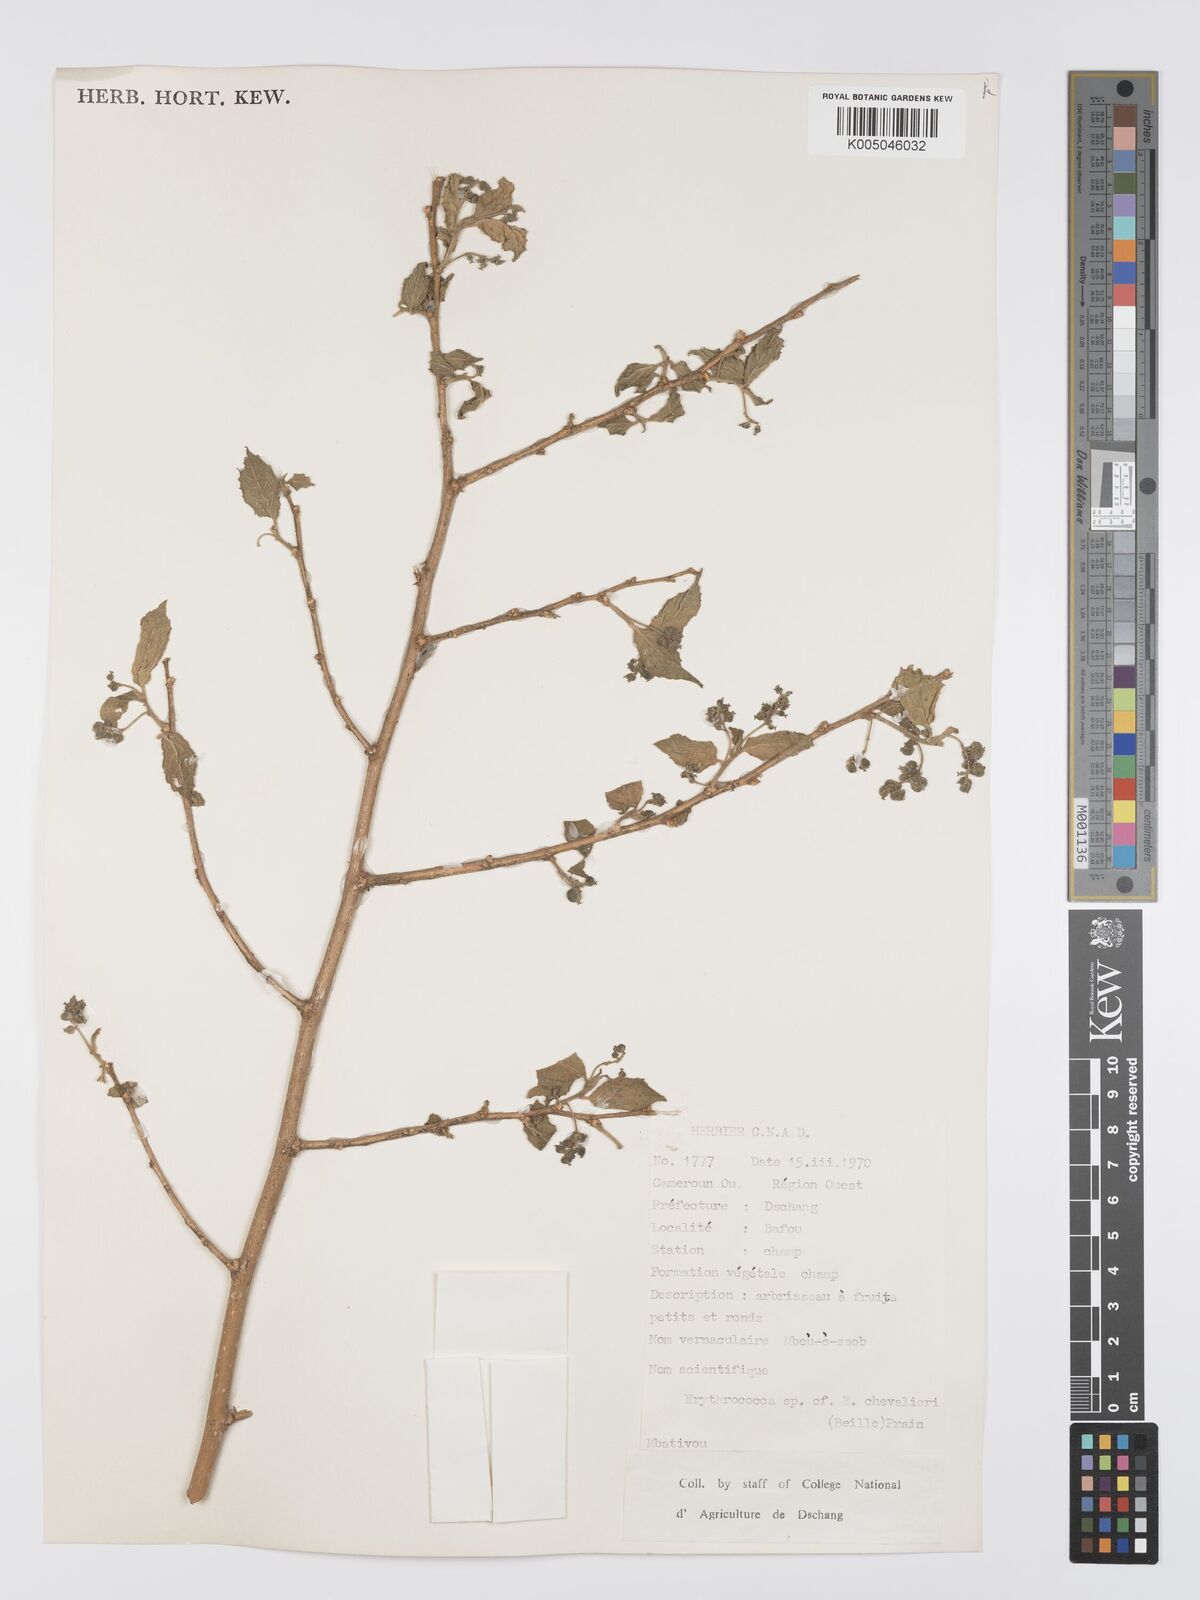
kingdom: Plantae
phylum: Tracheophyta
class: Magnoliopsida
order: Malpighiales
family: Euphorbiaceae
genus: Erythrococca
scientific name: Erythrococca chevalieri
